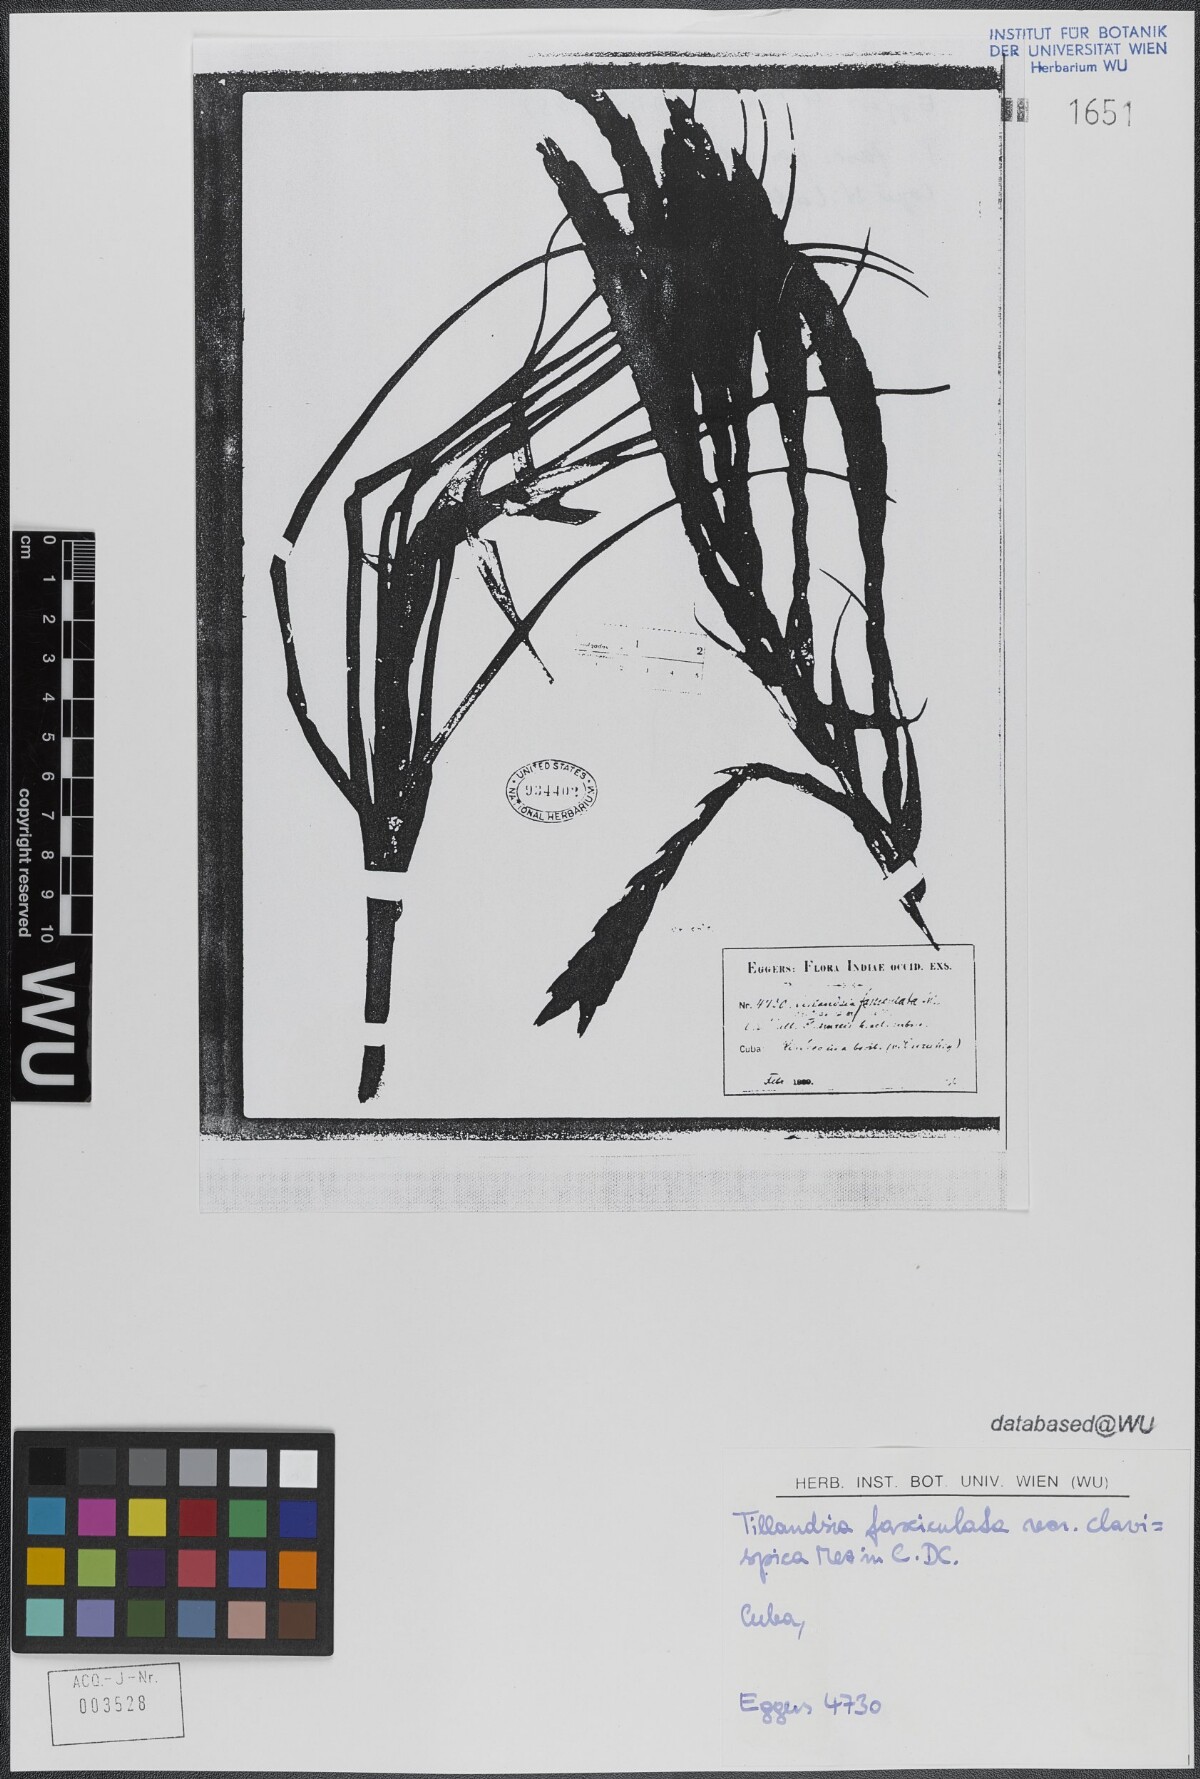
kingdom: Plantae
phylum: Tracheophyta
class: Liliopsida
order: Poales
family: Bromeliaceae
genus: Tillandsia
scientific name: Tillandsia fasciculata
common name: Giant airplant
